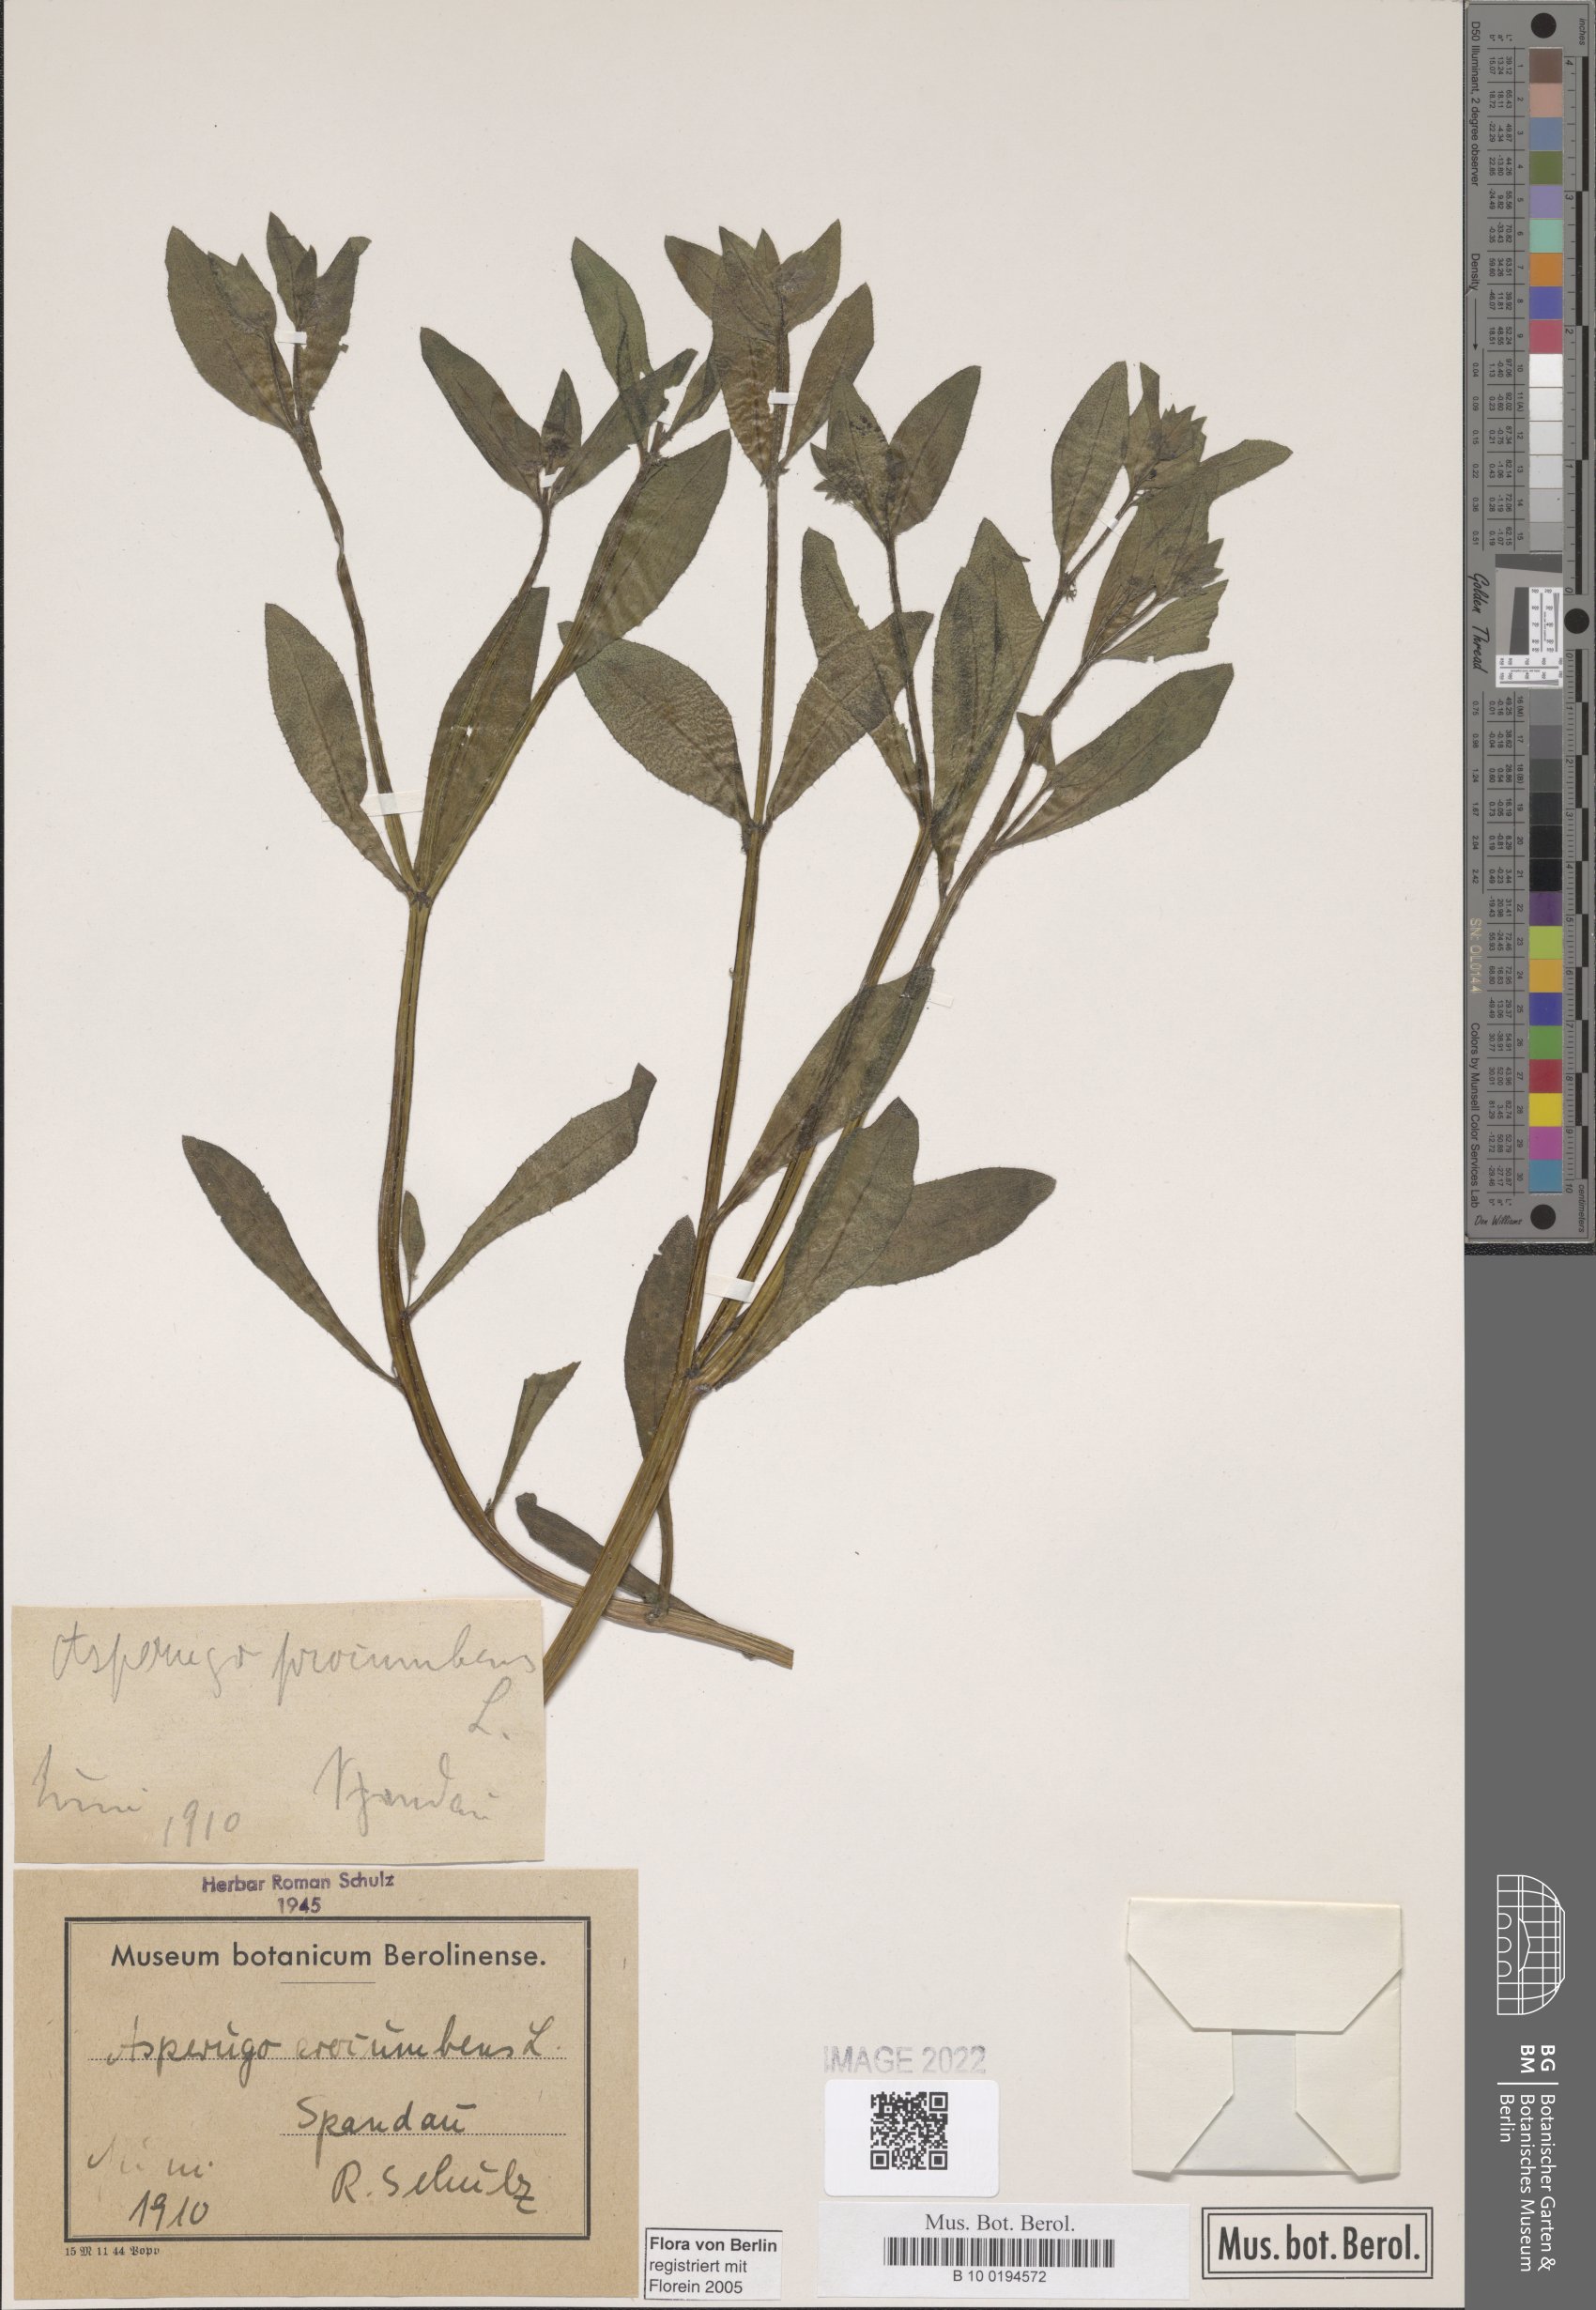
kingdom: Plantae
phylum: Tracheophyta
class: Magnoliopsida
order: Boraginales
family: Boraginaceae
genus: Asperugo
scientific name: Asperugo procumbens
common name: Madwort
